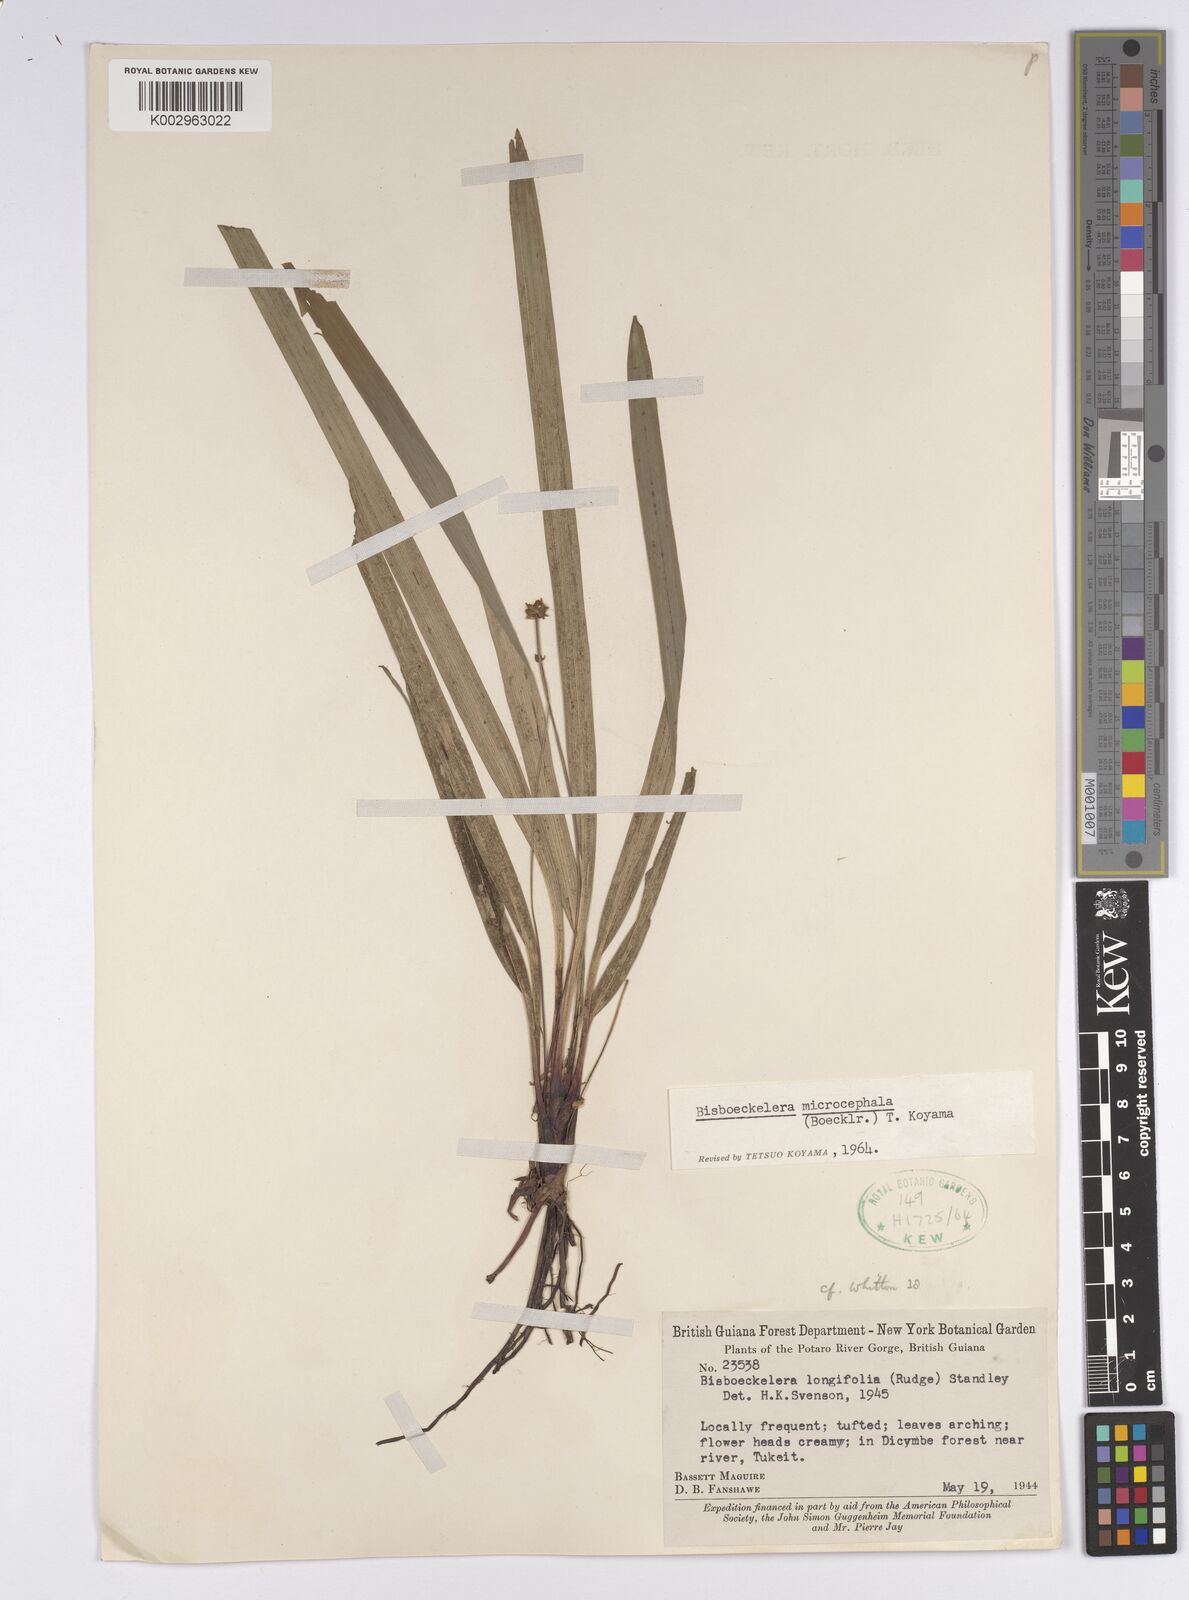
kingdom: Plantae
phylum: Tracheophyta
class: Liliopsida
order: Poales
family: Cyperaceae
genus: Bisboeckelera
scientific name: Bisboeckelera microcephala
